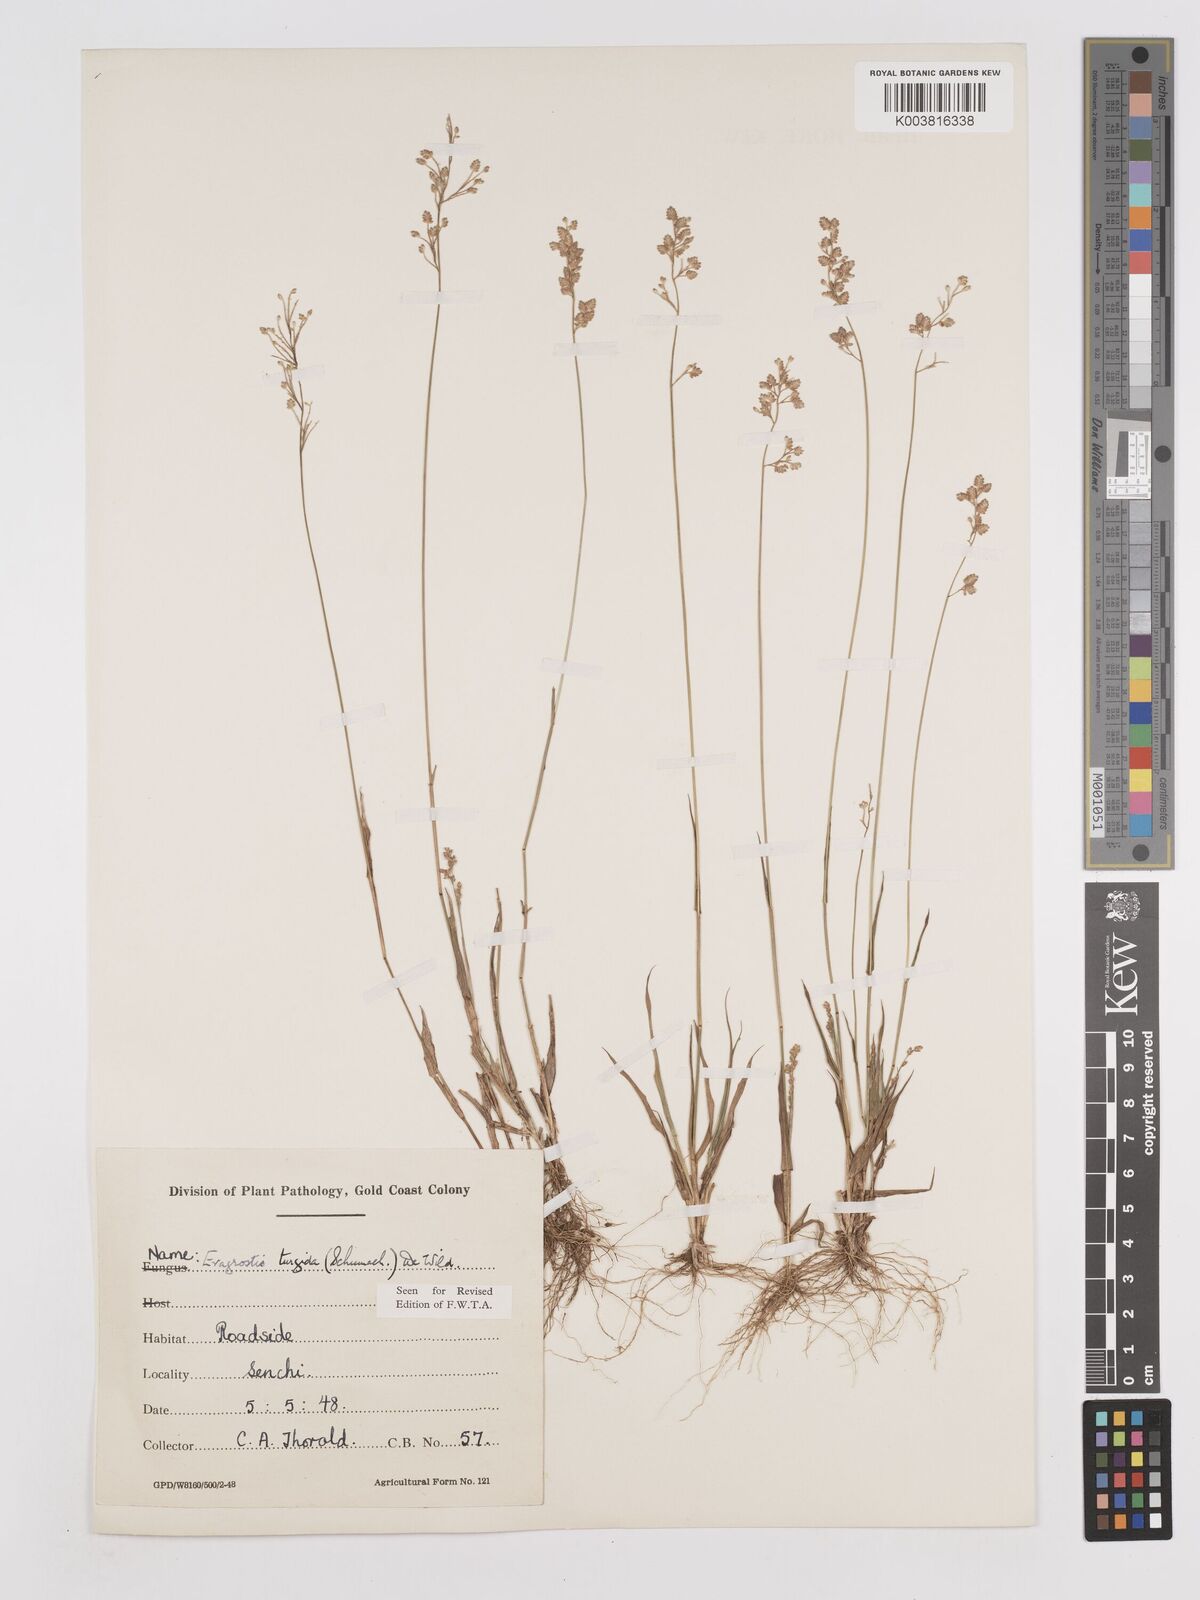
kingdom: Plantae
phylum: Tracheophyta
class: Liliopsida
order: Poales
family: Poaceae
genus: Eragrostis
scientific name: Eragrostis turgida
